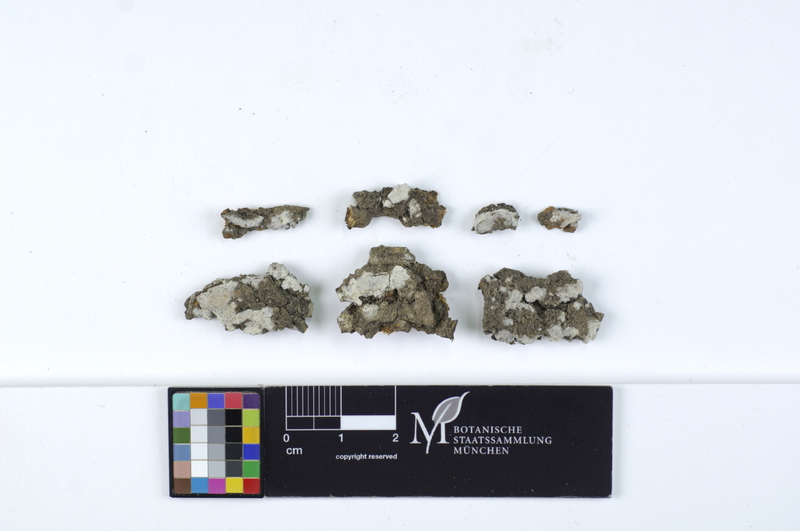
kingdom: Fungi
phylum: Basidiomycota
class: Agaricomycetes
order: Agaricales
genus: Dendrothele
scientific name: Dendrothele acerina
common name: Maple whitewash
